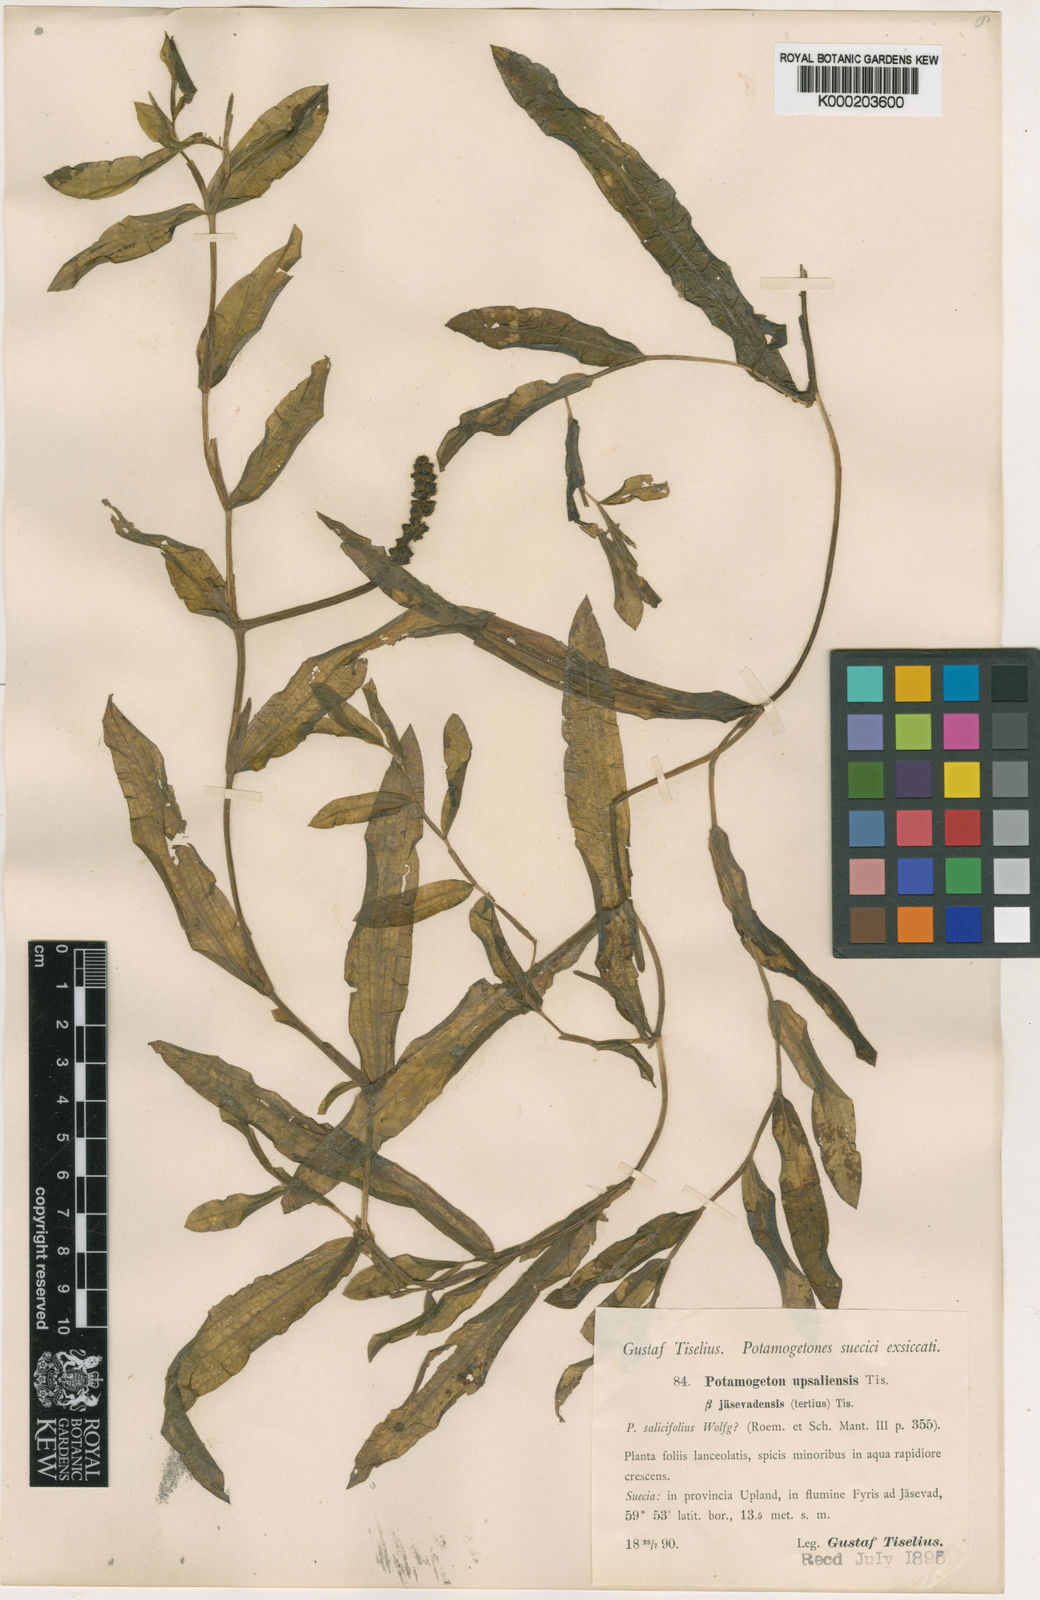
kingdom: Plantae
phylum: Tracheophyta
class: Liliopsida
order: Alismatales
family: Potamogetonaceae
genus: Potamogeton
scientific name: Potamogeton salicifolius
